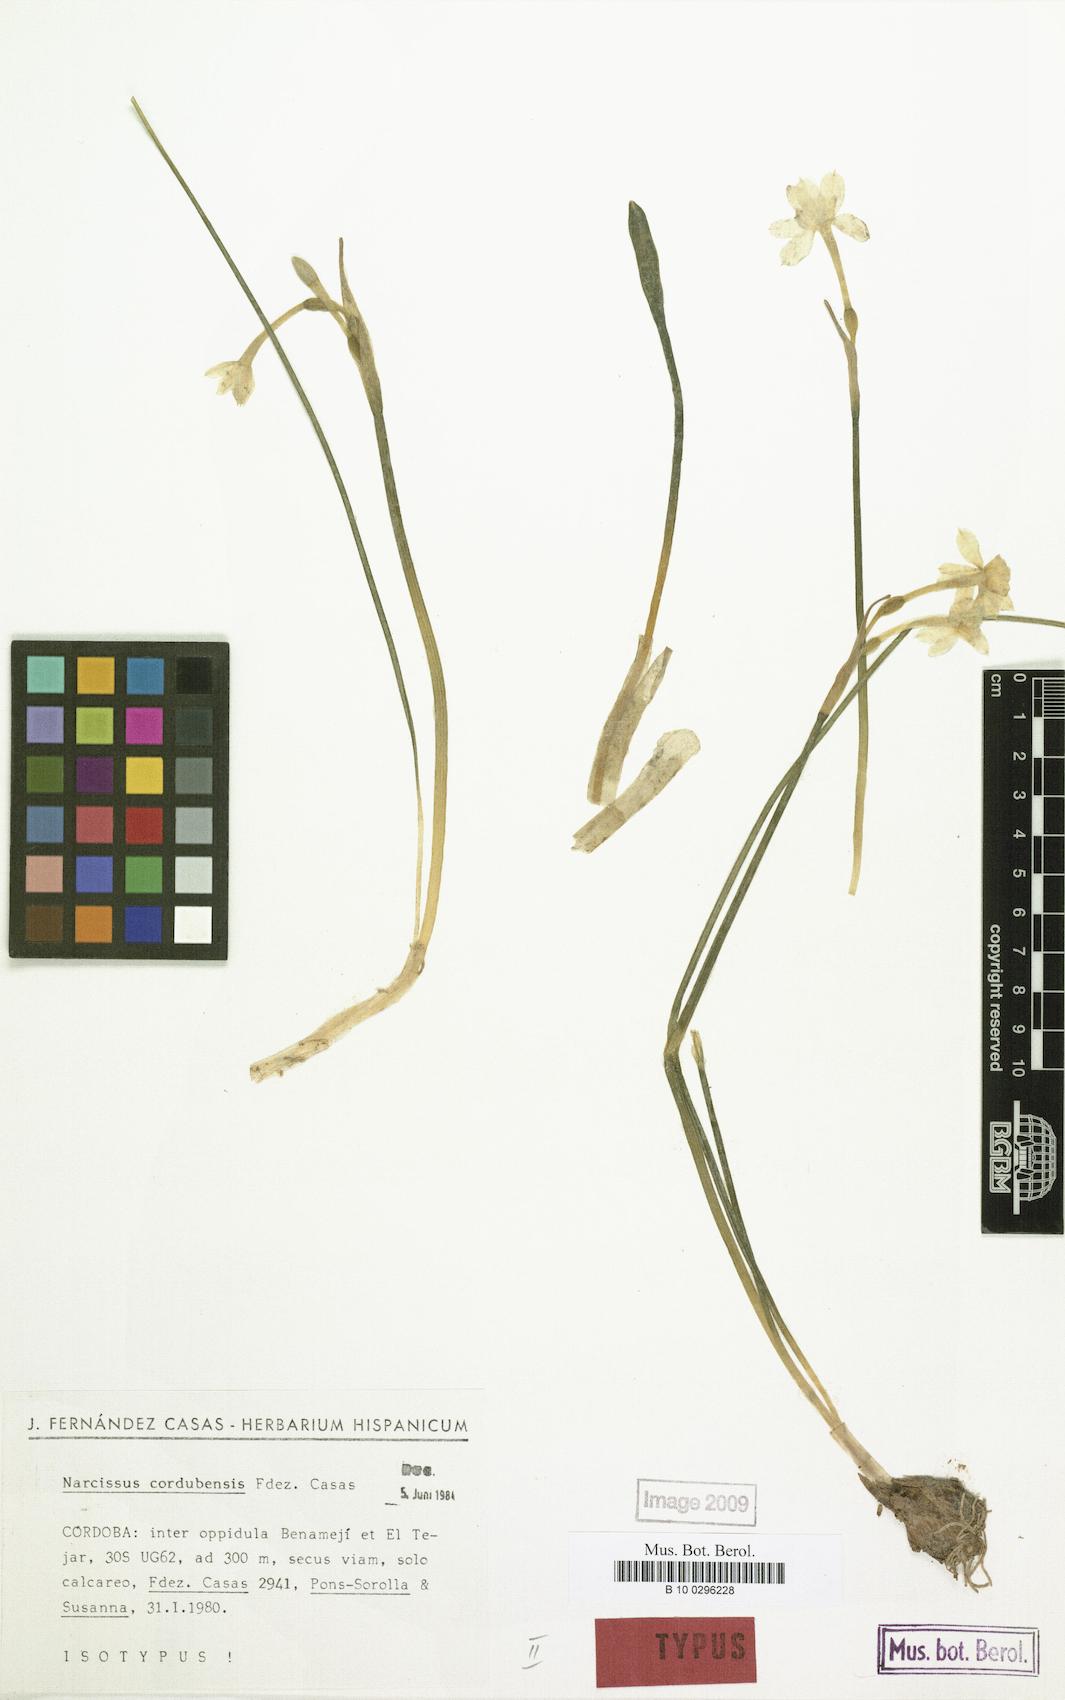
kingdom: Plantae
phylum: Tracheophyta
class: Liliopsida
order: Asparagales
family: Amaryllidaceae
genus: Narcissus
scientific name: Narcissus cordubensis
